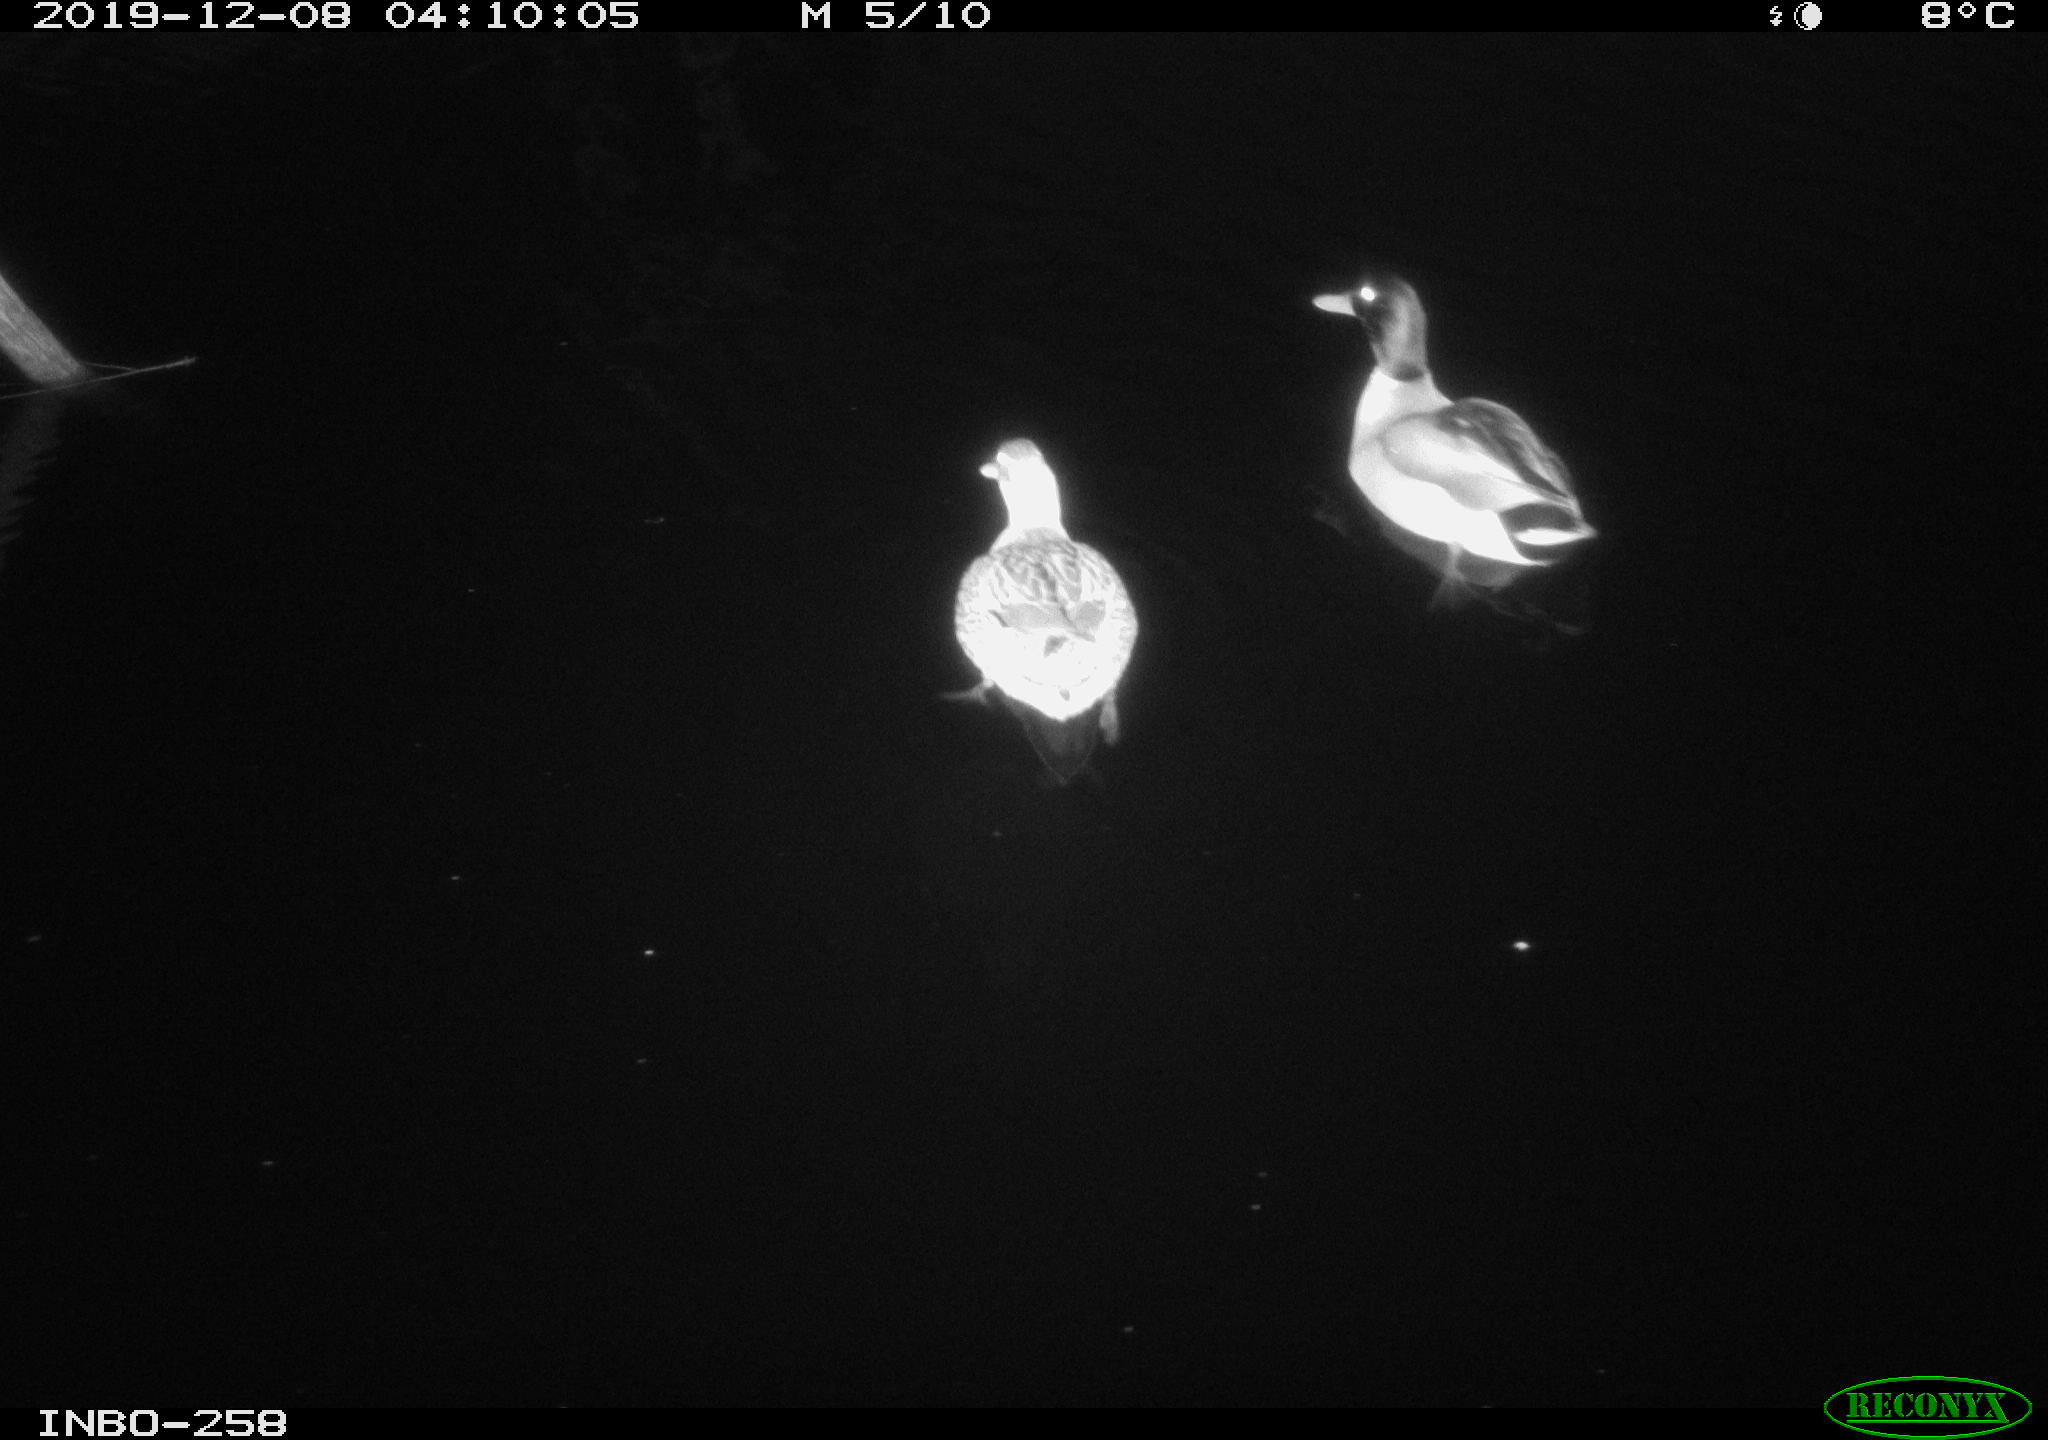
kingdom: Animalia
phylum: Chordata
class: Aves
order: Anseriformes
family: Anatidae
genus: Anas
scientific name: Anas platyrhynchos
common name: Mallard
